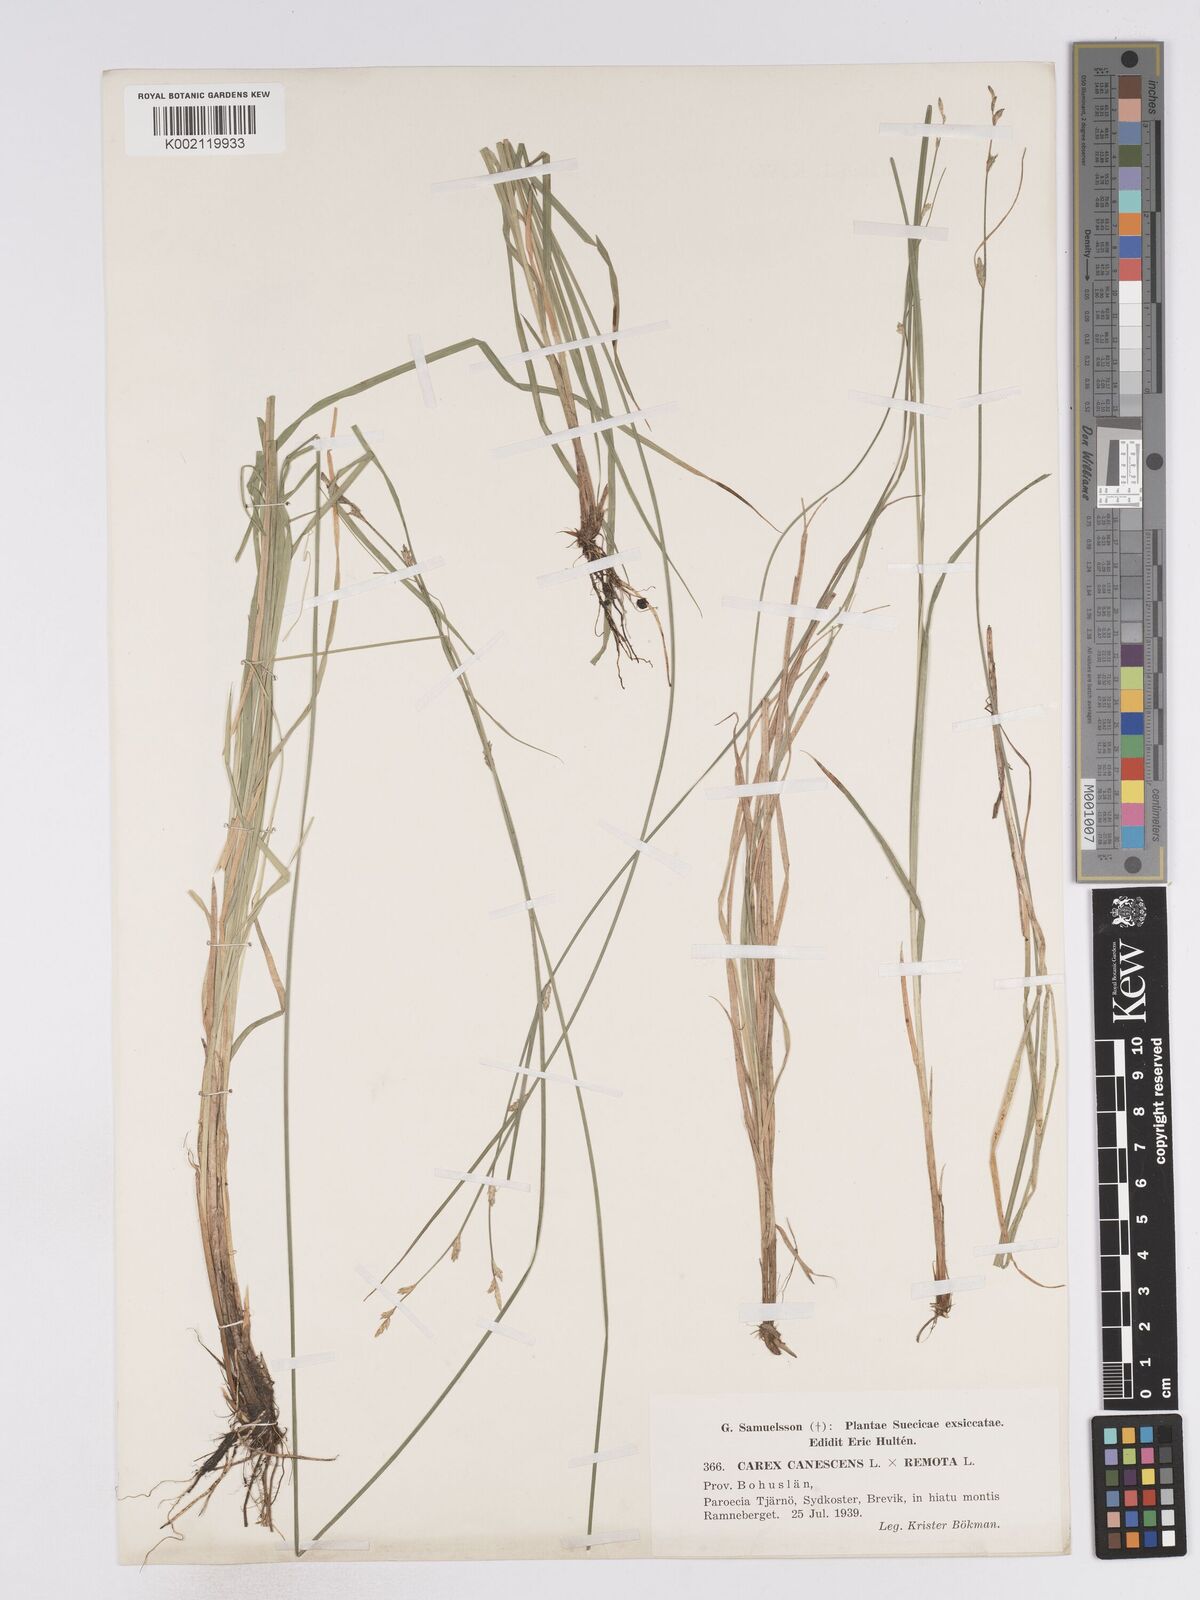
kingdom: Plantae
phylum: Tracheophyta
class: Liliopsida
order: Poales
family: Cyperaceae
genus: Carex
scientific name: Carex curta
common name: White sedge
